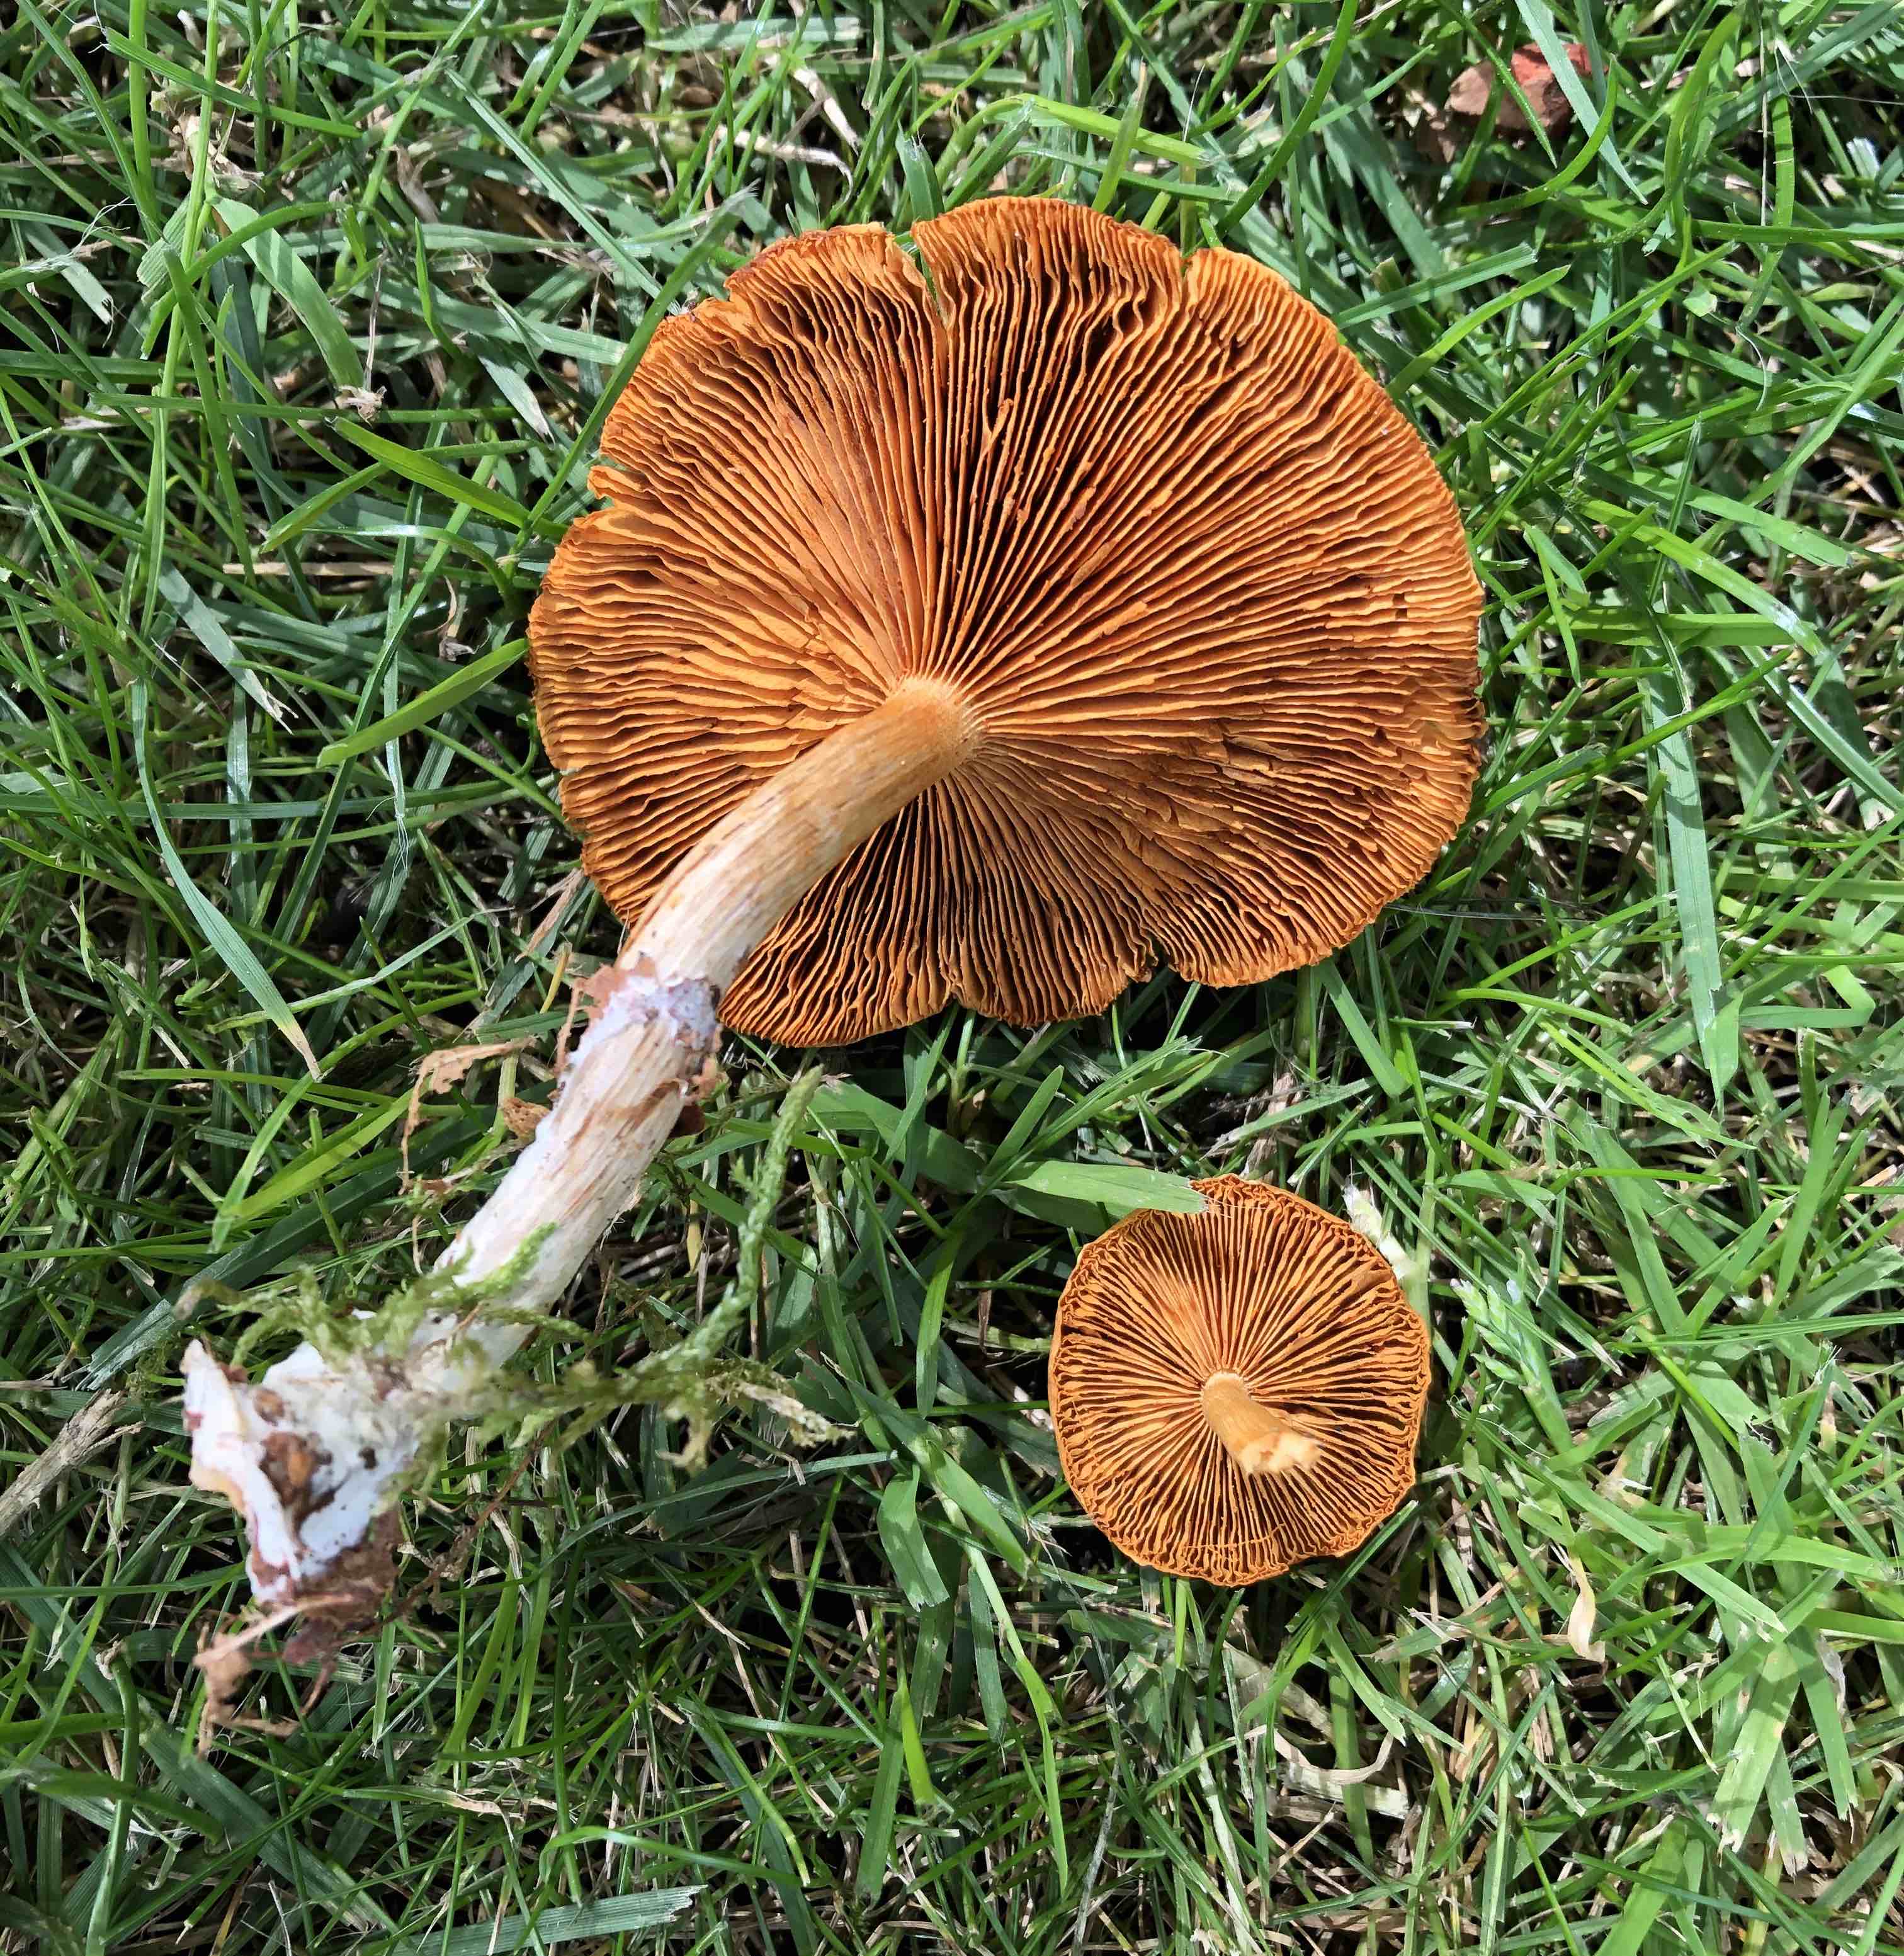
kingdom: Fungi
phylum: Basidiomycota
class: Agaricomycetes
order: Agaricales
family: Hymenogastraceae
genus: Gymnopilus
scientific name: Gymnopilus penetrans
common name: plettet flammehat
